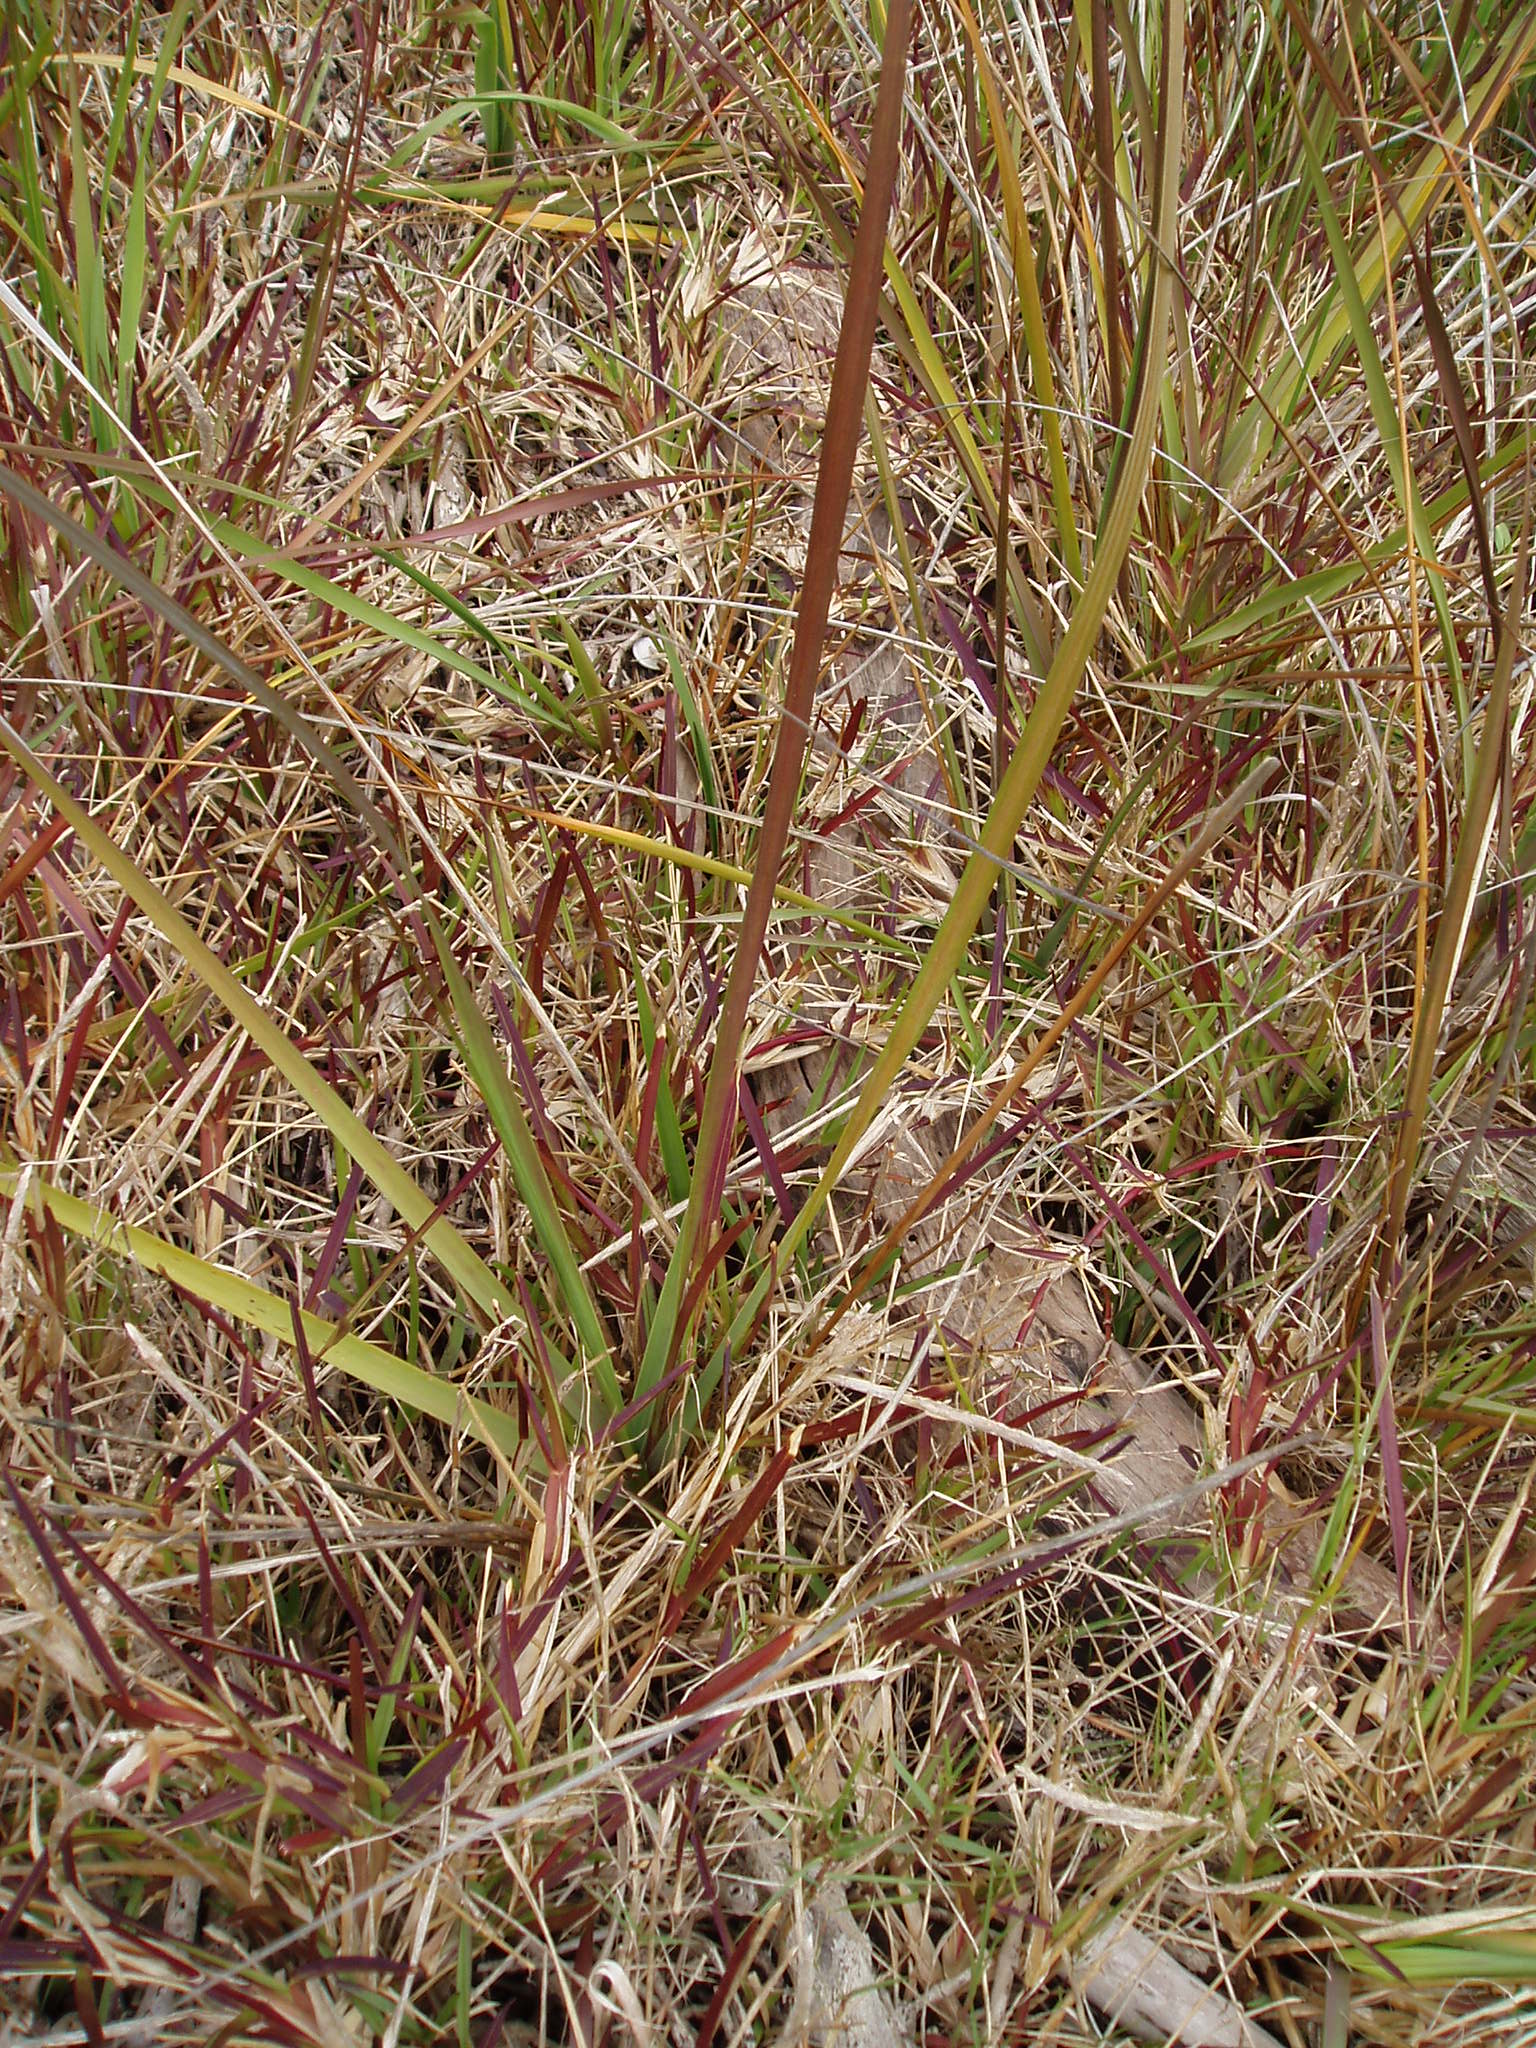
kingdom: Plantae
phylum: Tracheophyta
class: Liliopsida
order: Poales
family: Poaceae
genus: Sporobolus
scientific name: Sporobolus alterniflorus
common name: Atlantic cordgrass
